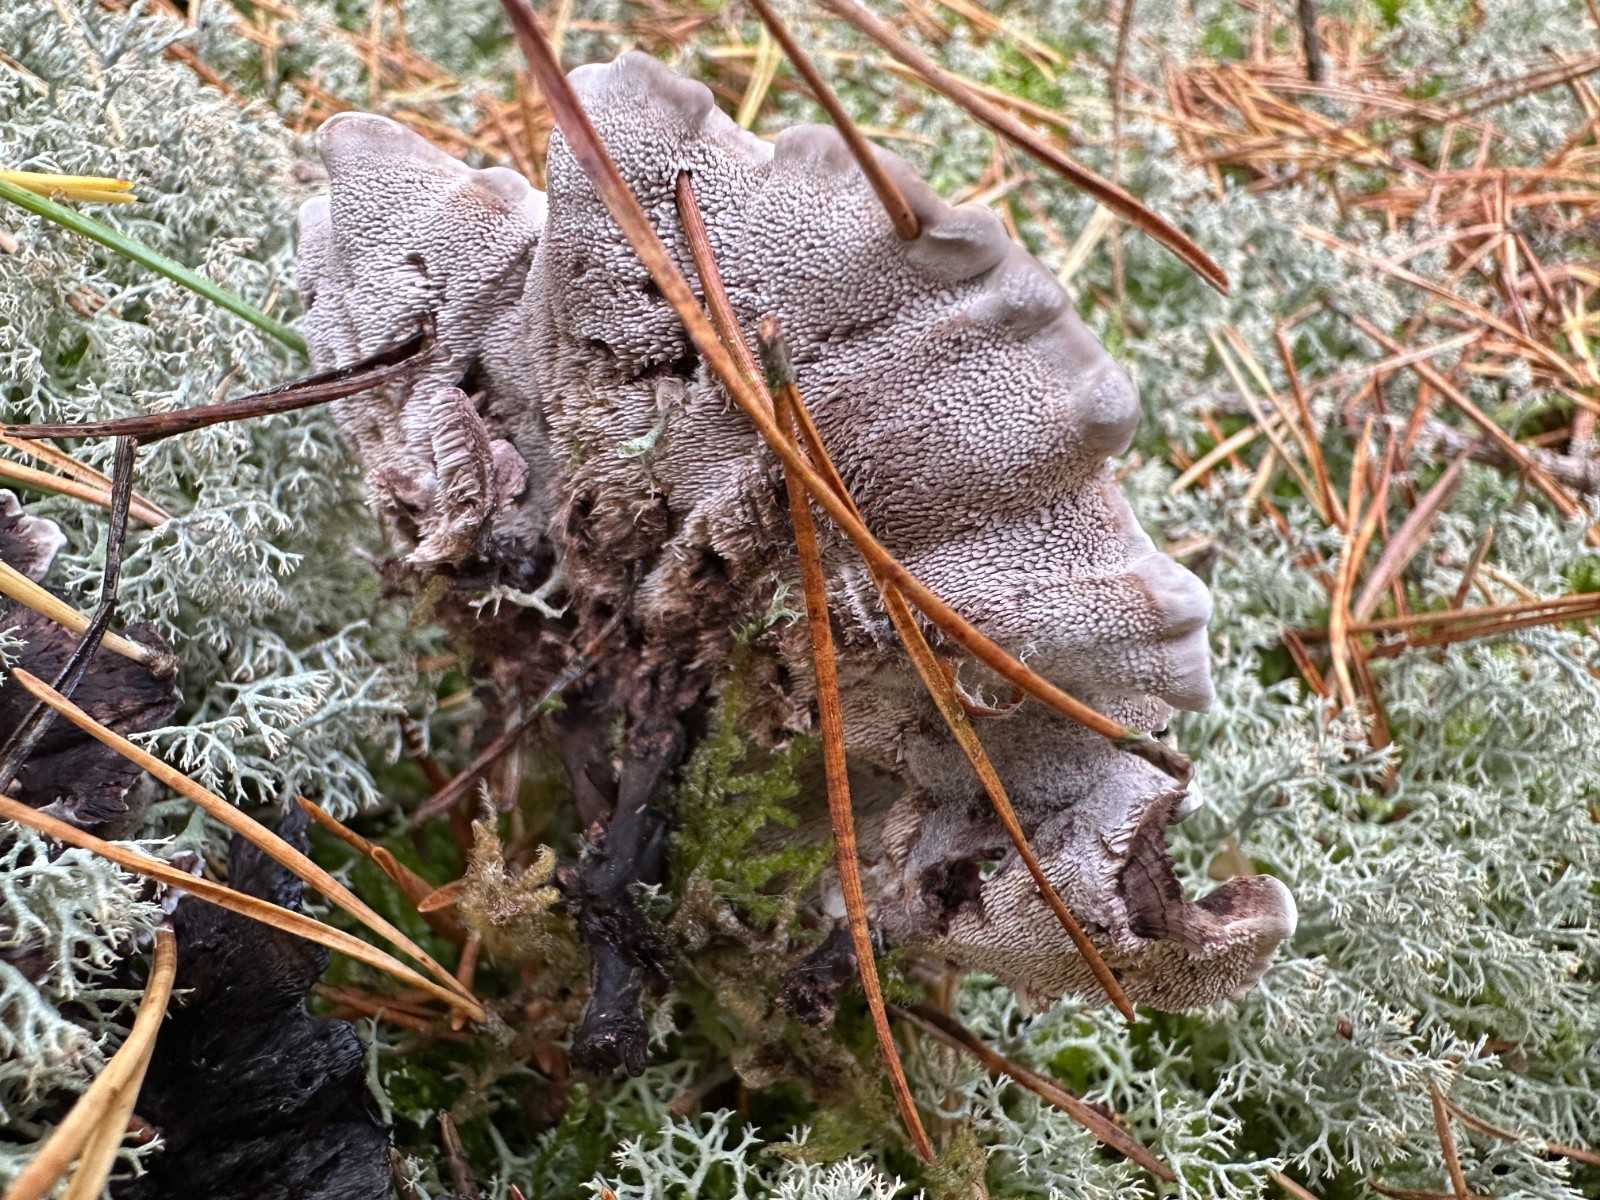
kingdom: Fungi
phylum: Basidiomycota
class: Agaricomycetes
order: Thelephorales
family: Thelephoraceae
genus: Phellodon
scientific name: Phellodon tomentosus
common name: vellugtende duftpigsvamp
